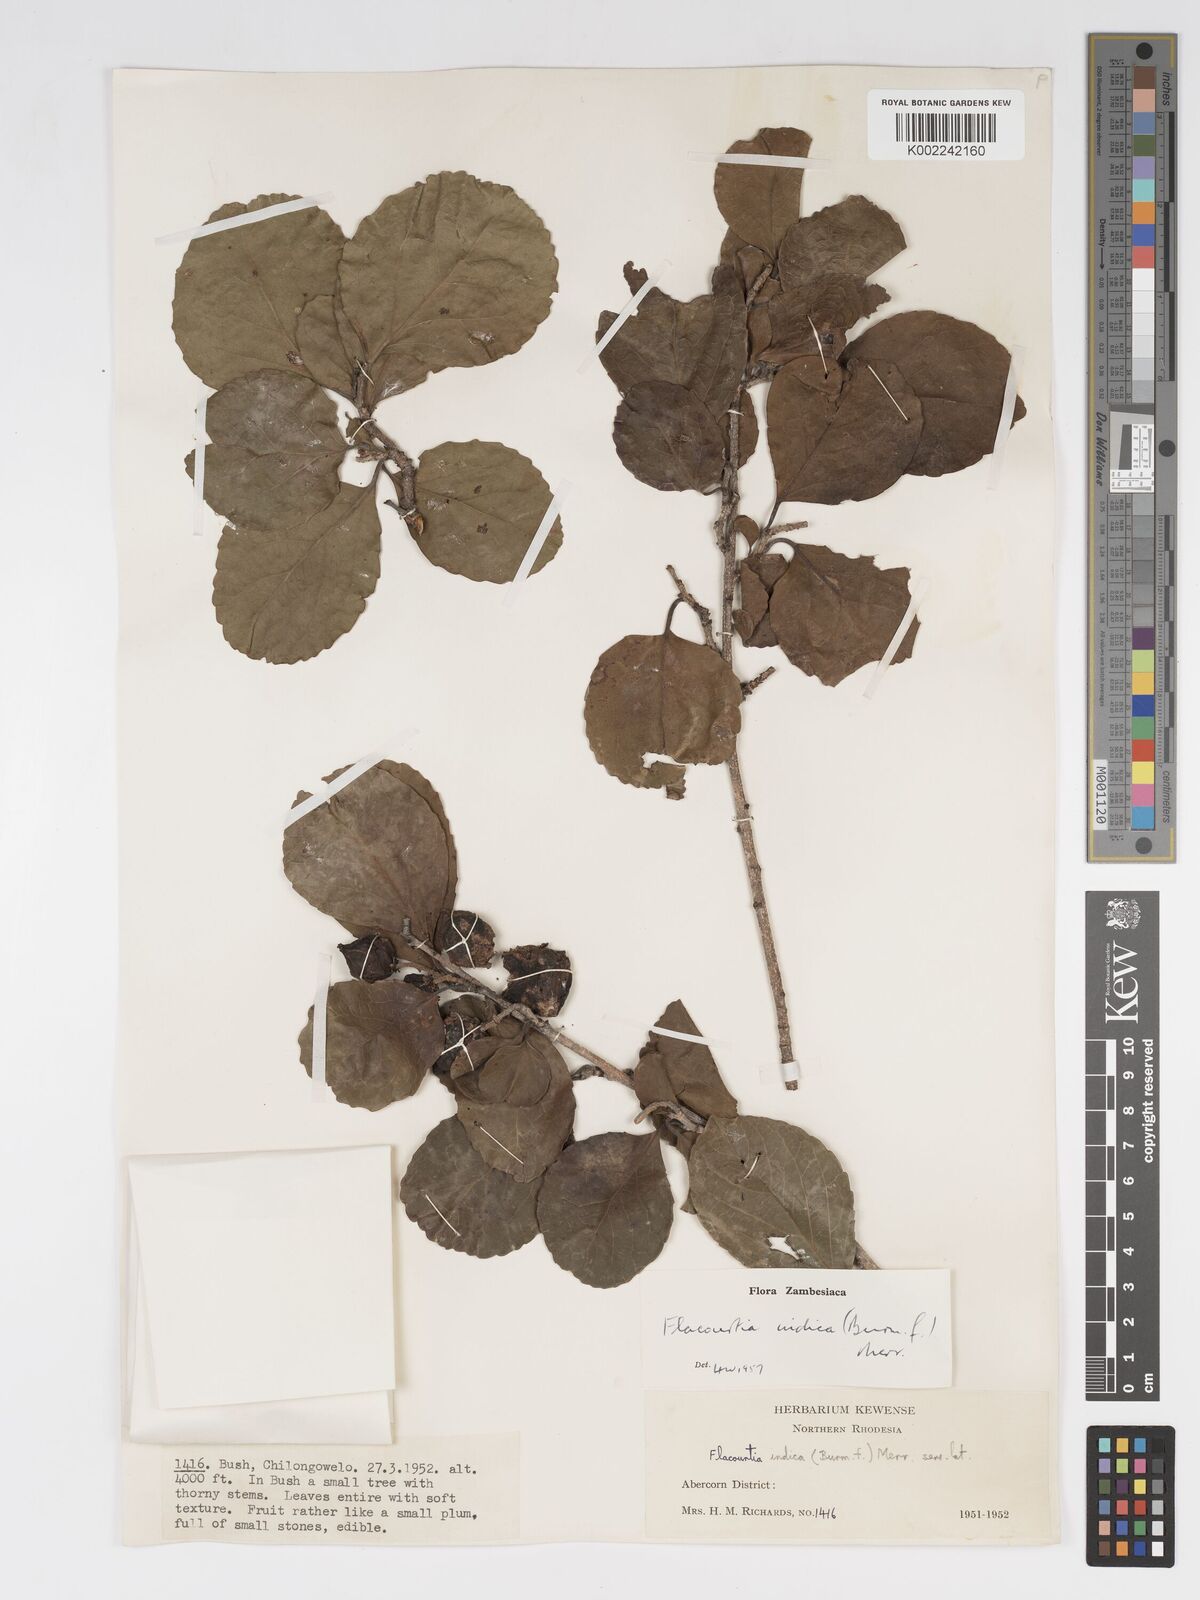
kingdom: Plantae
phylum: Tracheophyta
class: Magnoliopsida
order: Malpighiales
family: Salicaceae
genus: Flacourtia
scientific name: Flacourtia indica
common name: Governor's plum
